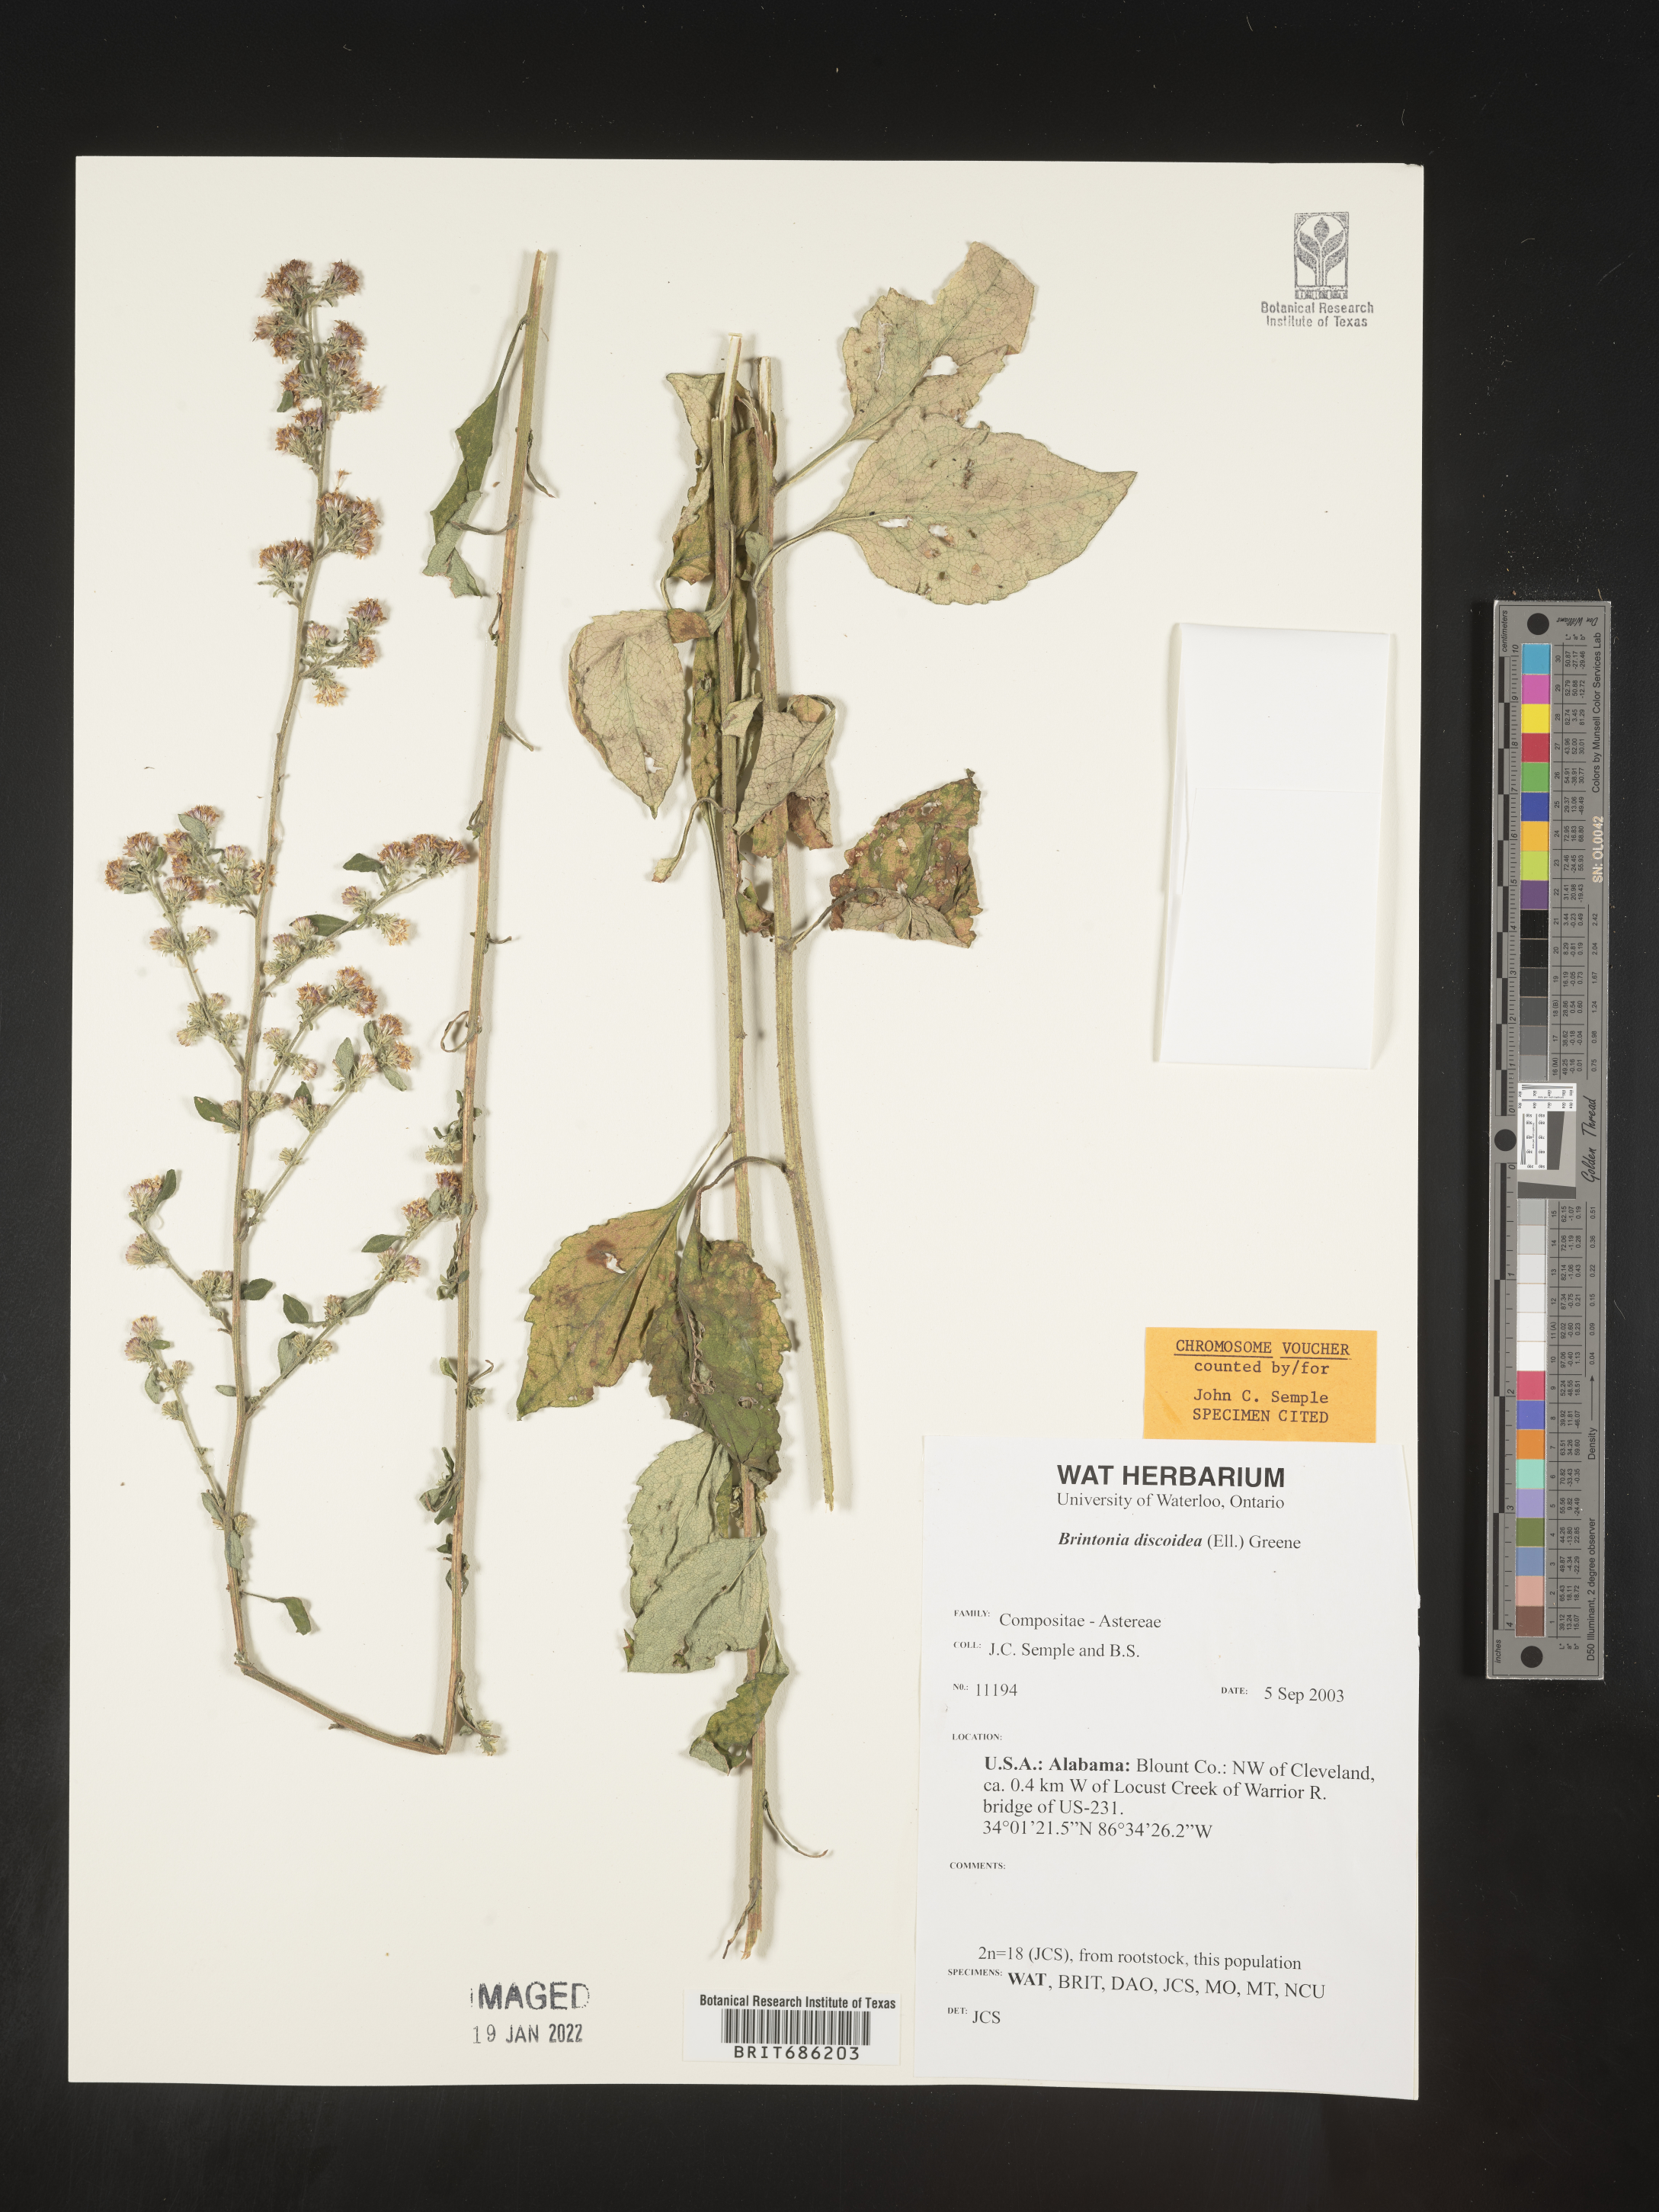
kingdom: Plantae
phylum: Tracheophyta
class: Magnoliopsida
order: Asterales
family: Asteraceae
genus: Solidago
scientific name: Solidago discoidea
